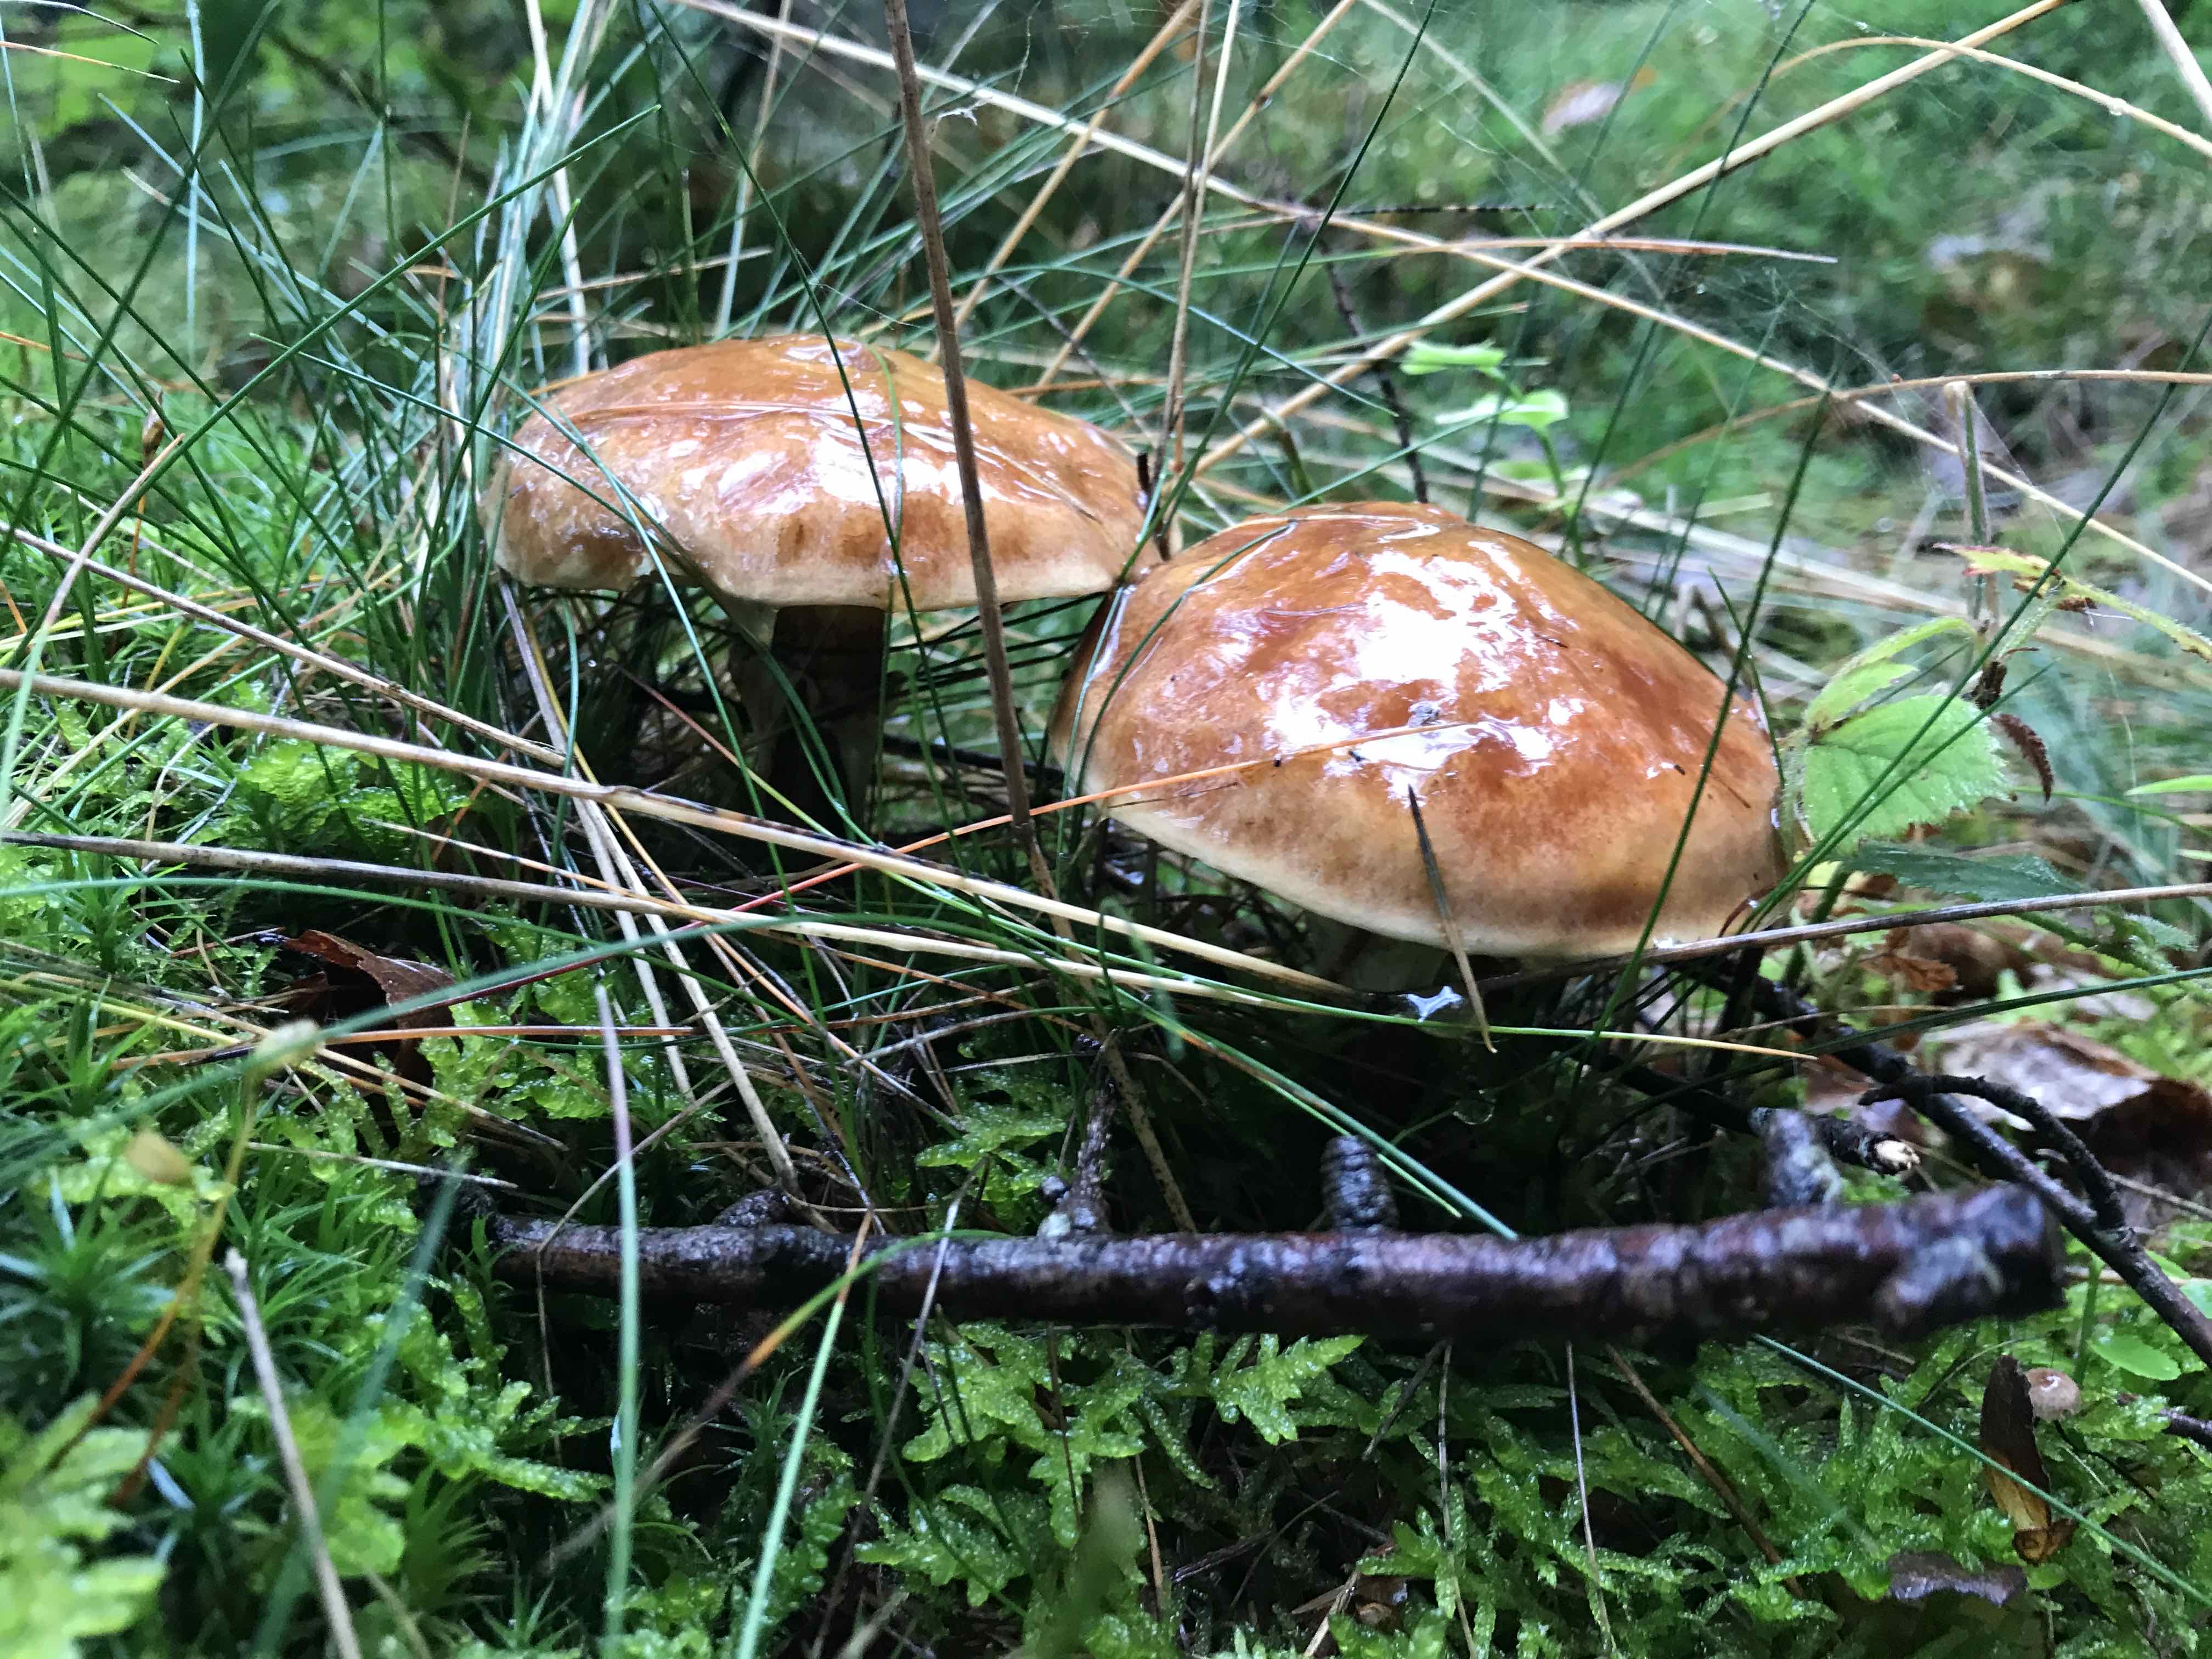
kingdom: Fungi
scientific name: Fungi
